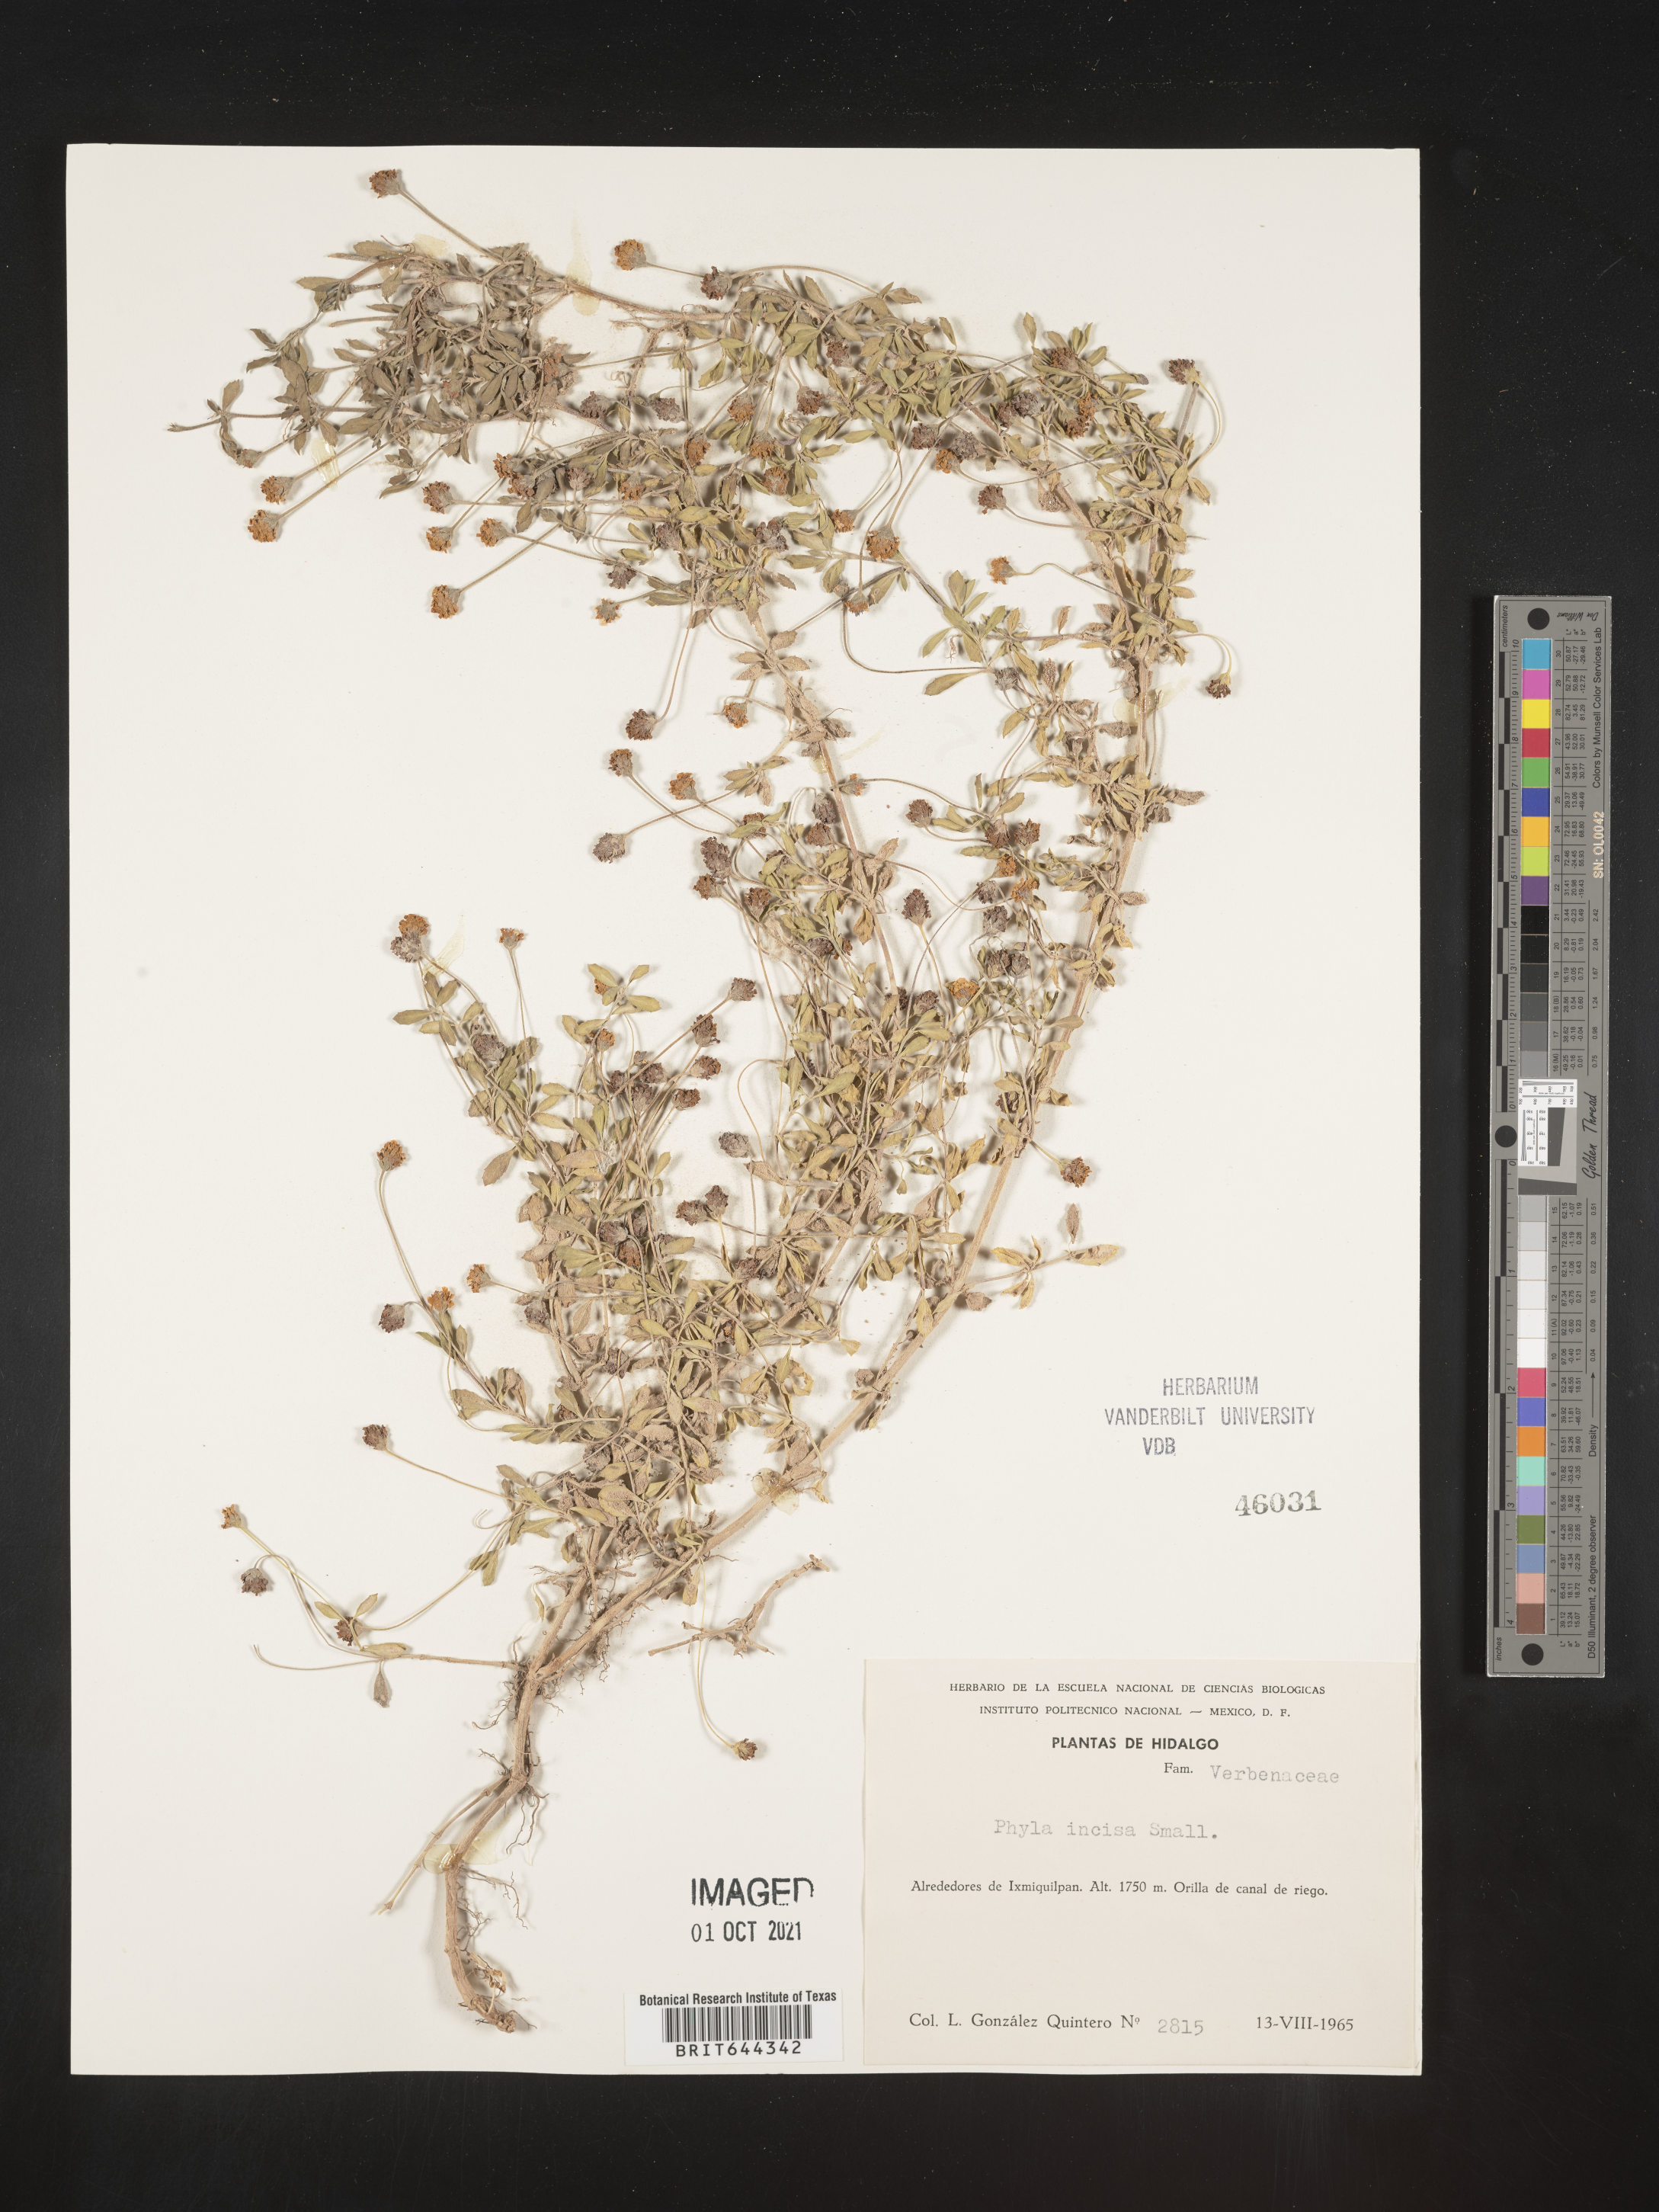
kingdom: Plantae
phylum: Tracheophyta
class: Magnoliopsida
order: Lamiales
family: Verbenaceae
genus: Phyla
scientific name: Phyla
